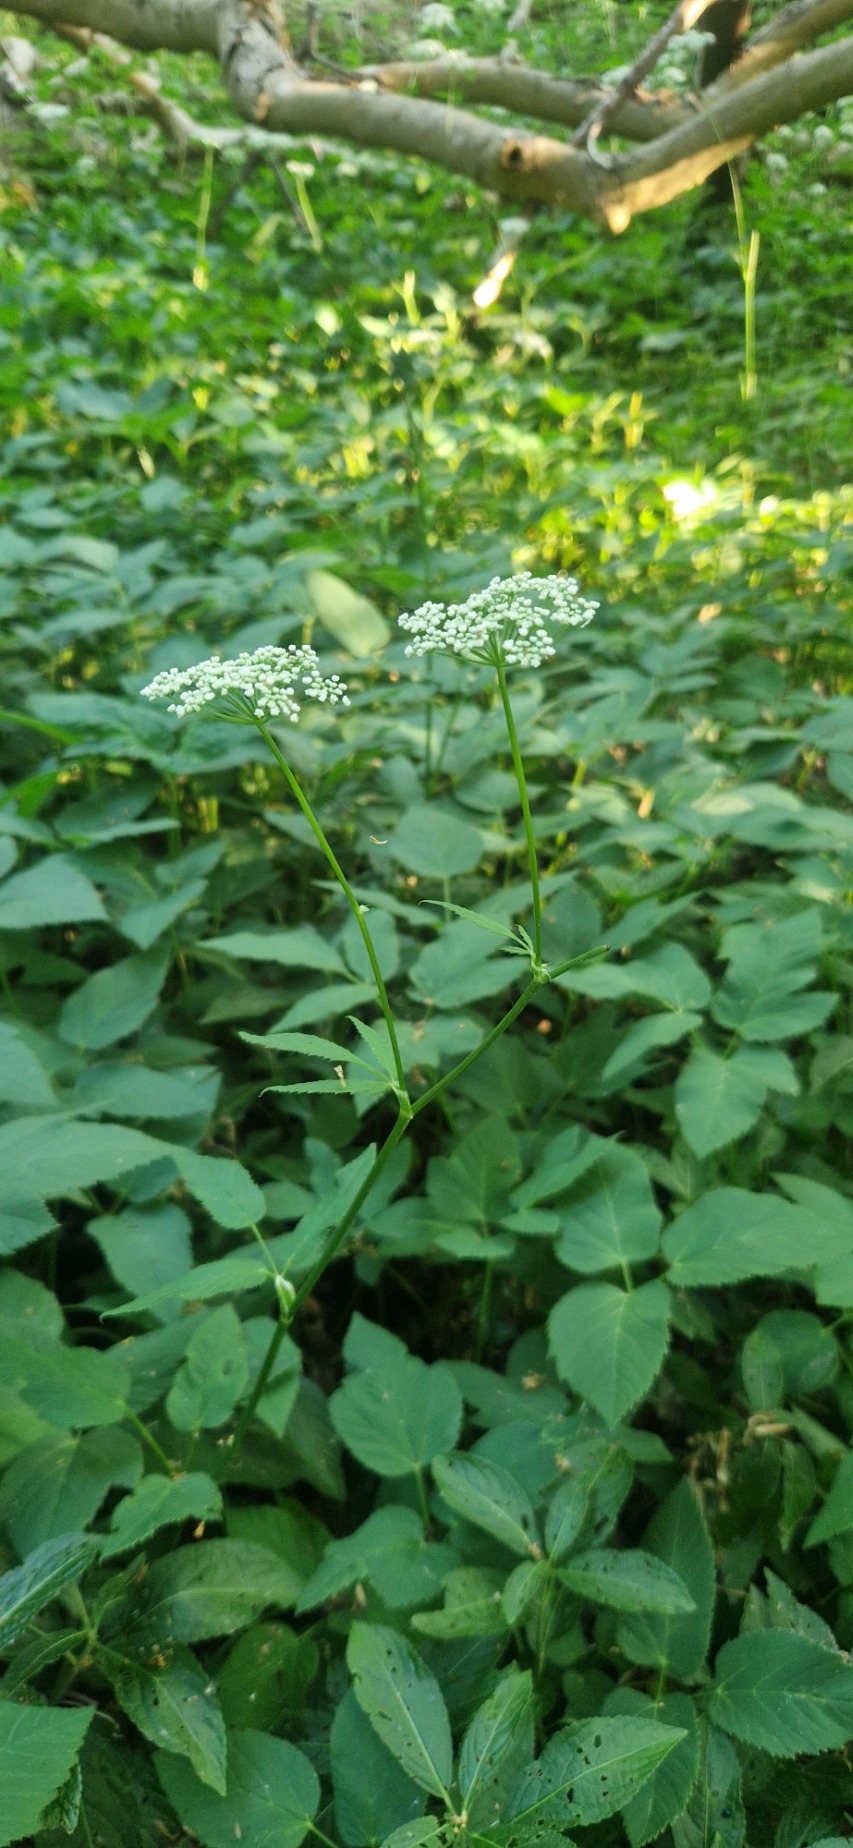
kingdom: Plantae
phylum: Tracheophyta
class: Magnoliopsida
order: Apiales
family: Apiaceae
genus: Aegopodium
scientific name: Aegopodium podagraria
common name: Skvalderkål
